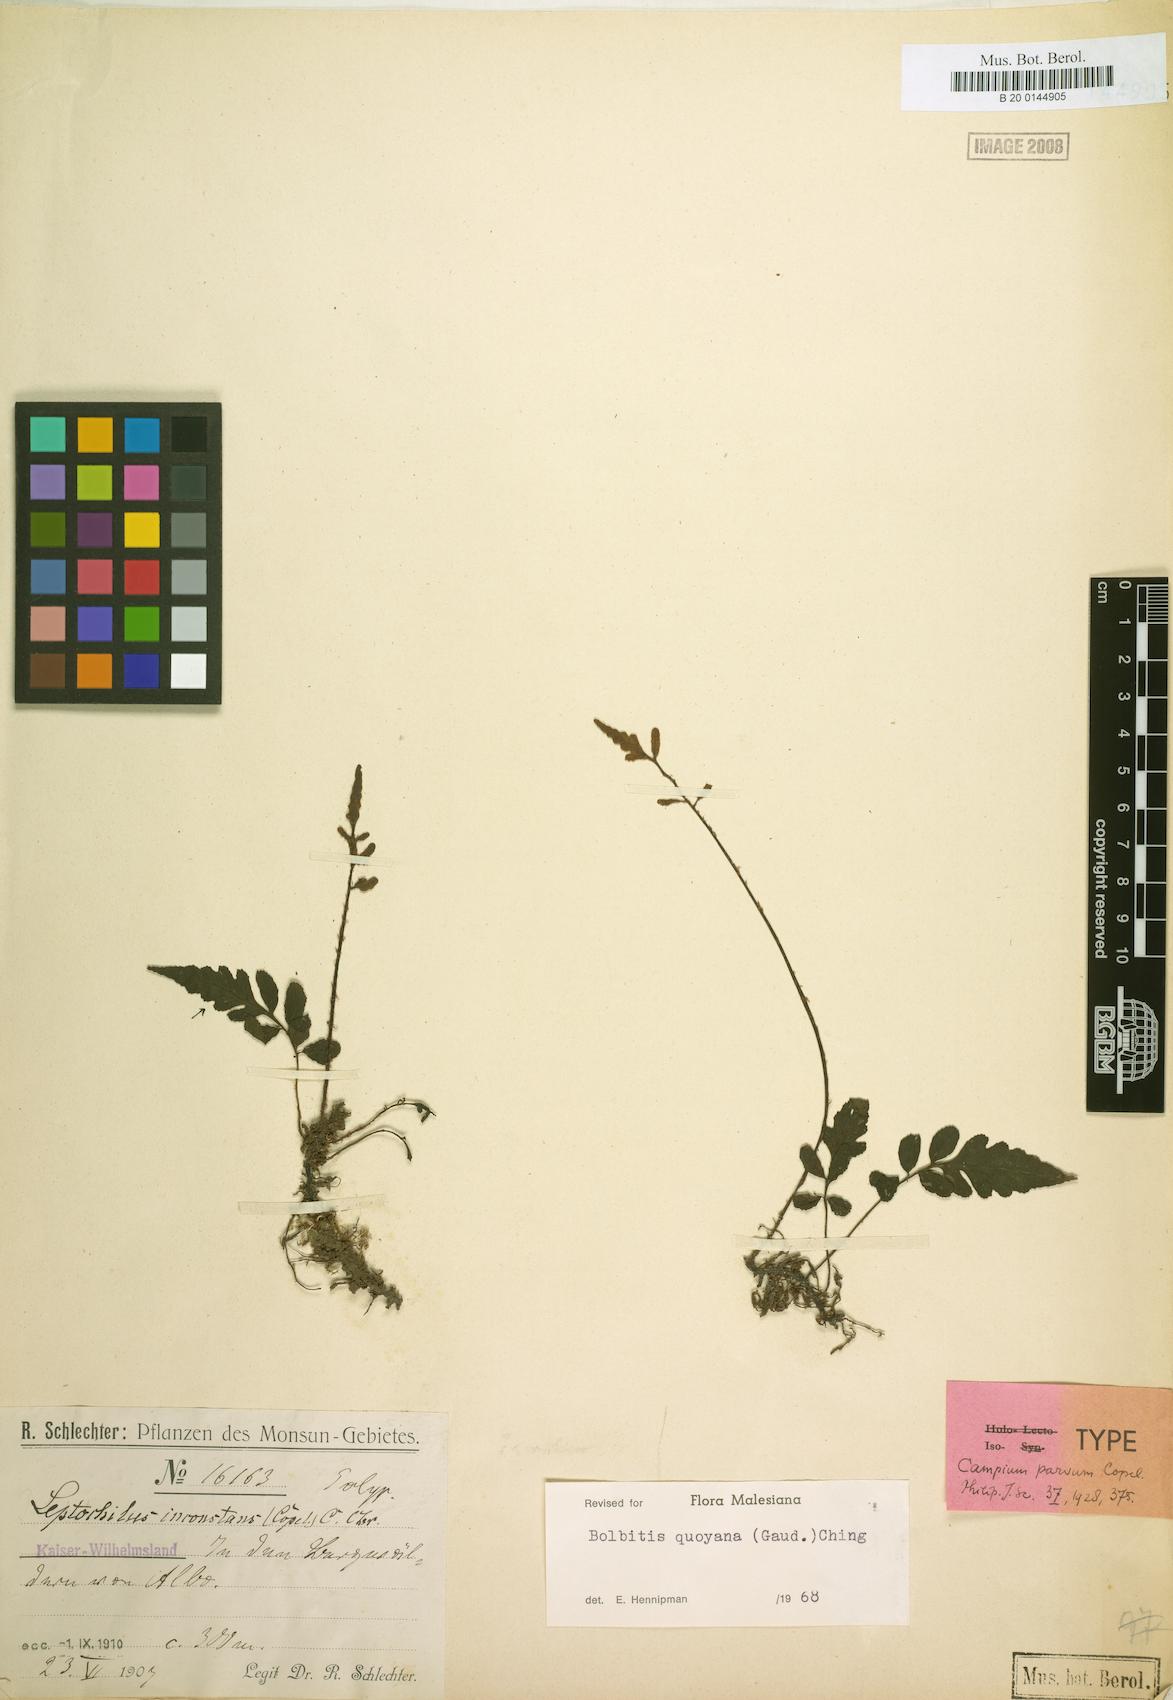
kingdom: Plantae
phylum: Tracheophyta
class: Polypodiopsida
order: Polypodiales
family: Dryopteridaceae
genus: Bolbitis
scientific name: Bolbitis quoyana
